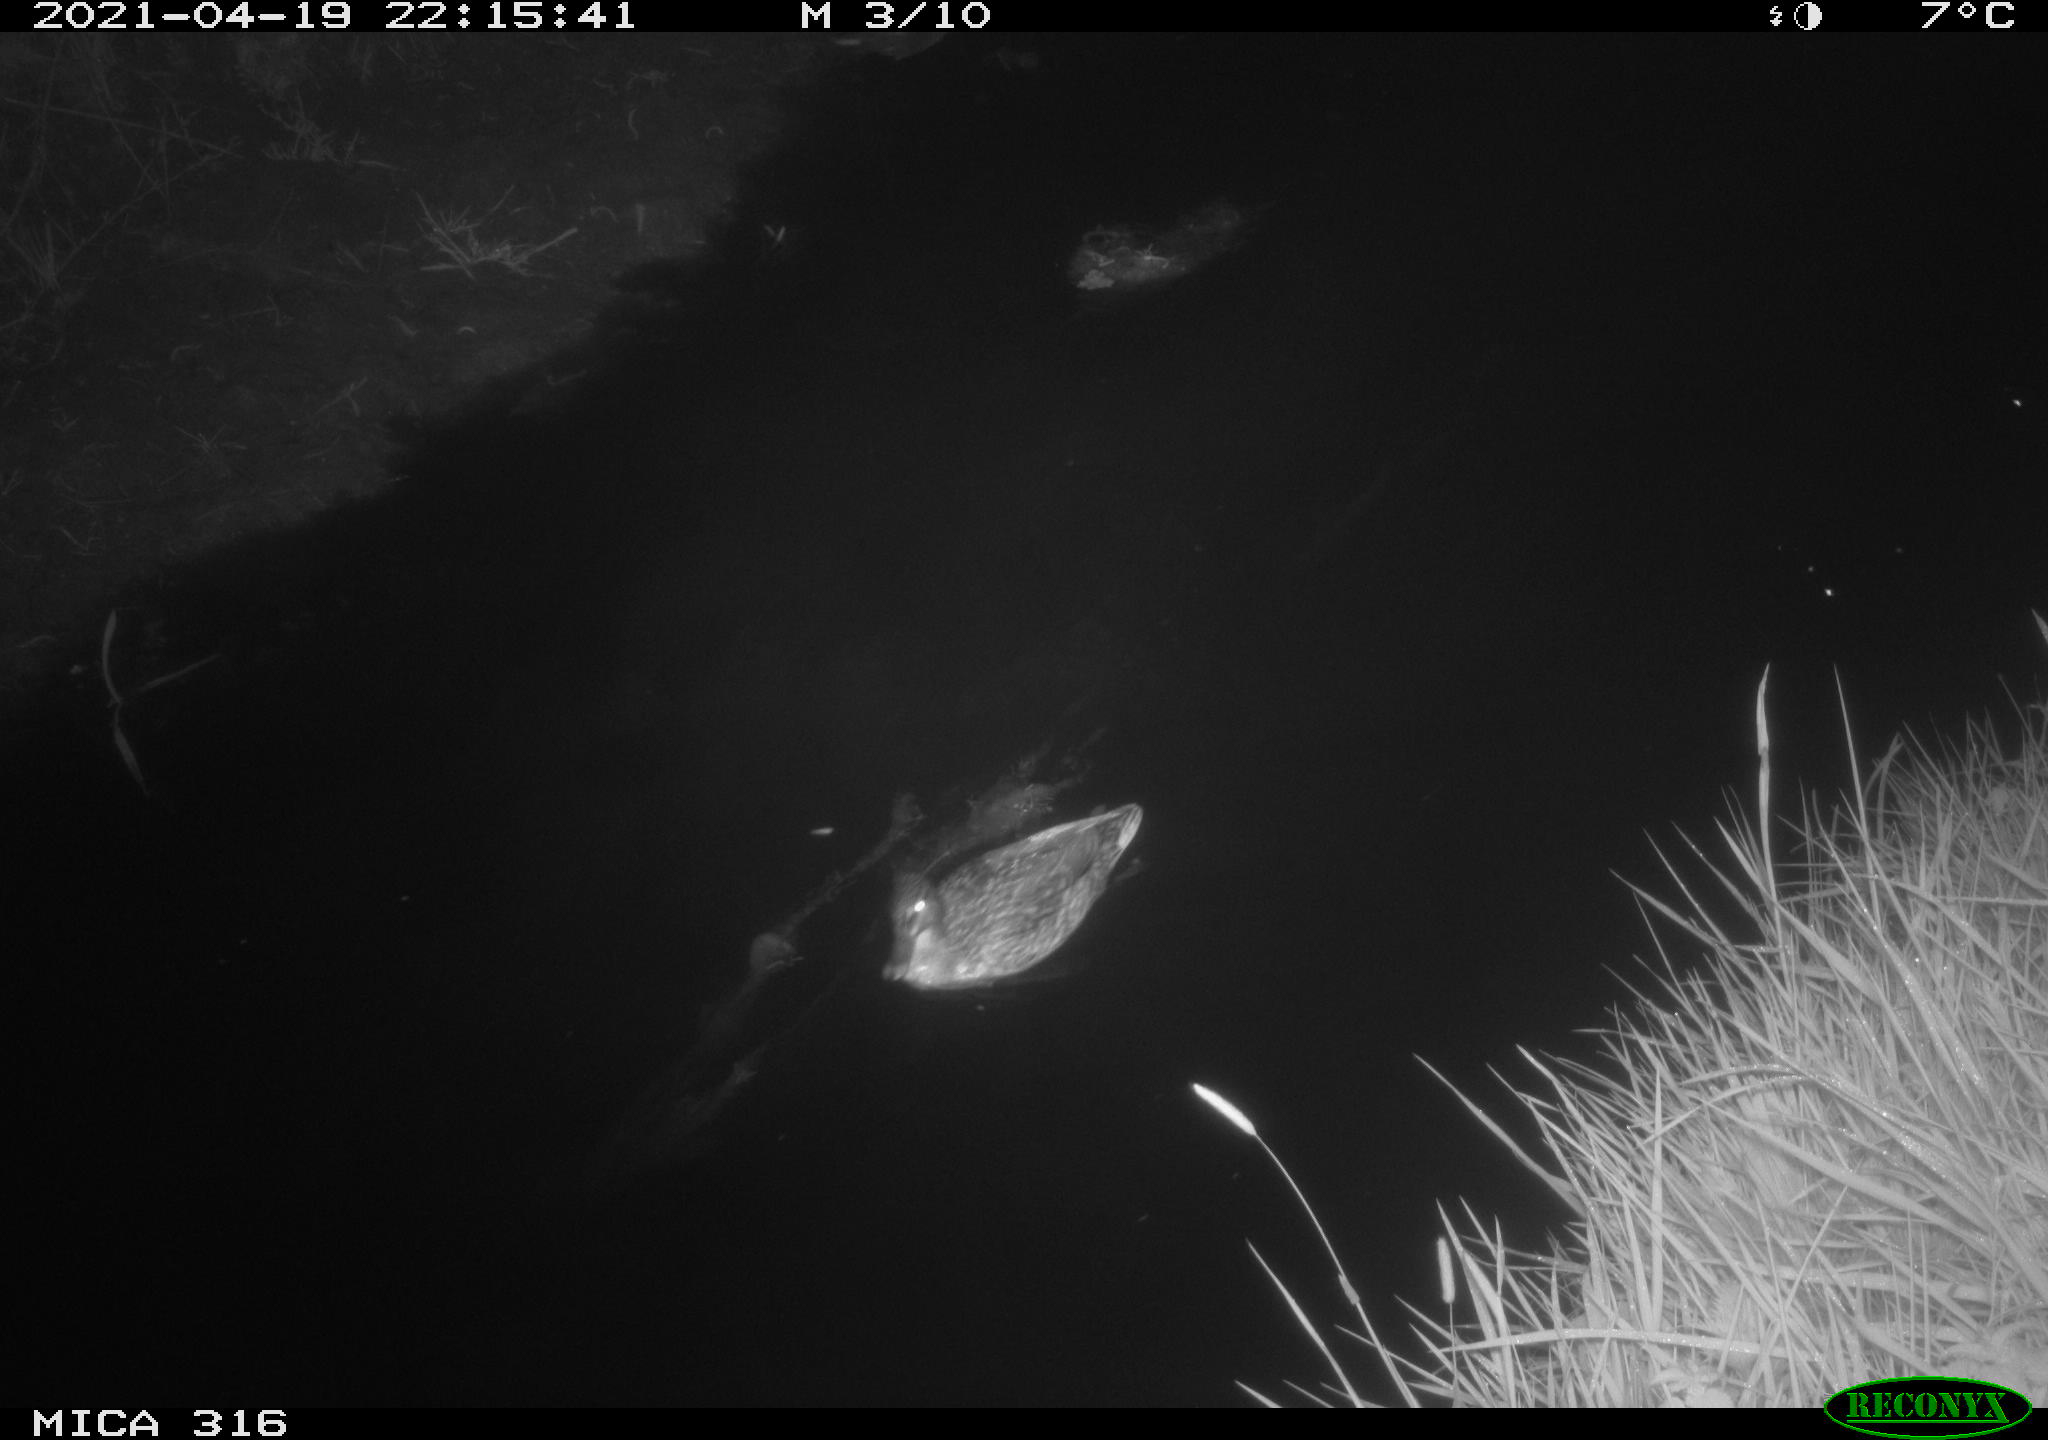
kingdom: Animalia
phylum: Chordata
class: Aves
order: Anseriformes
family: Anatidae
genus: Anas
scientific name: Anas platyrhynchos
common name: Mallard
